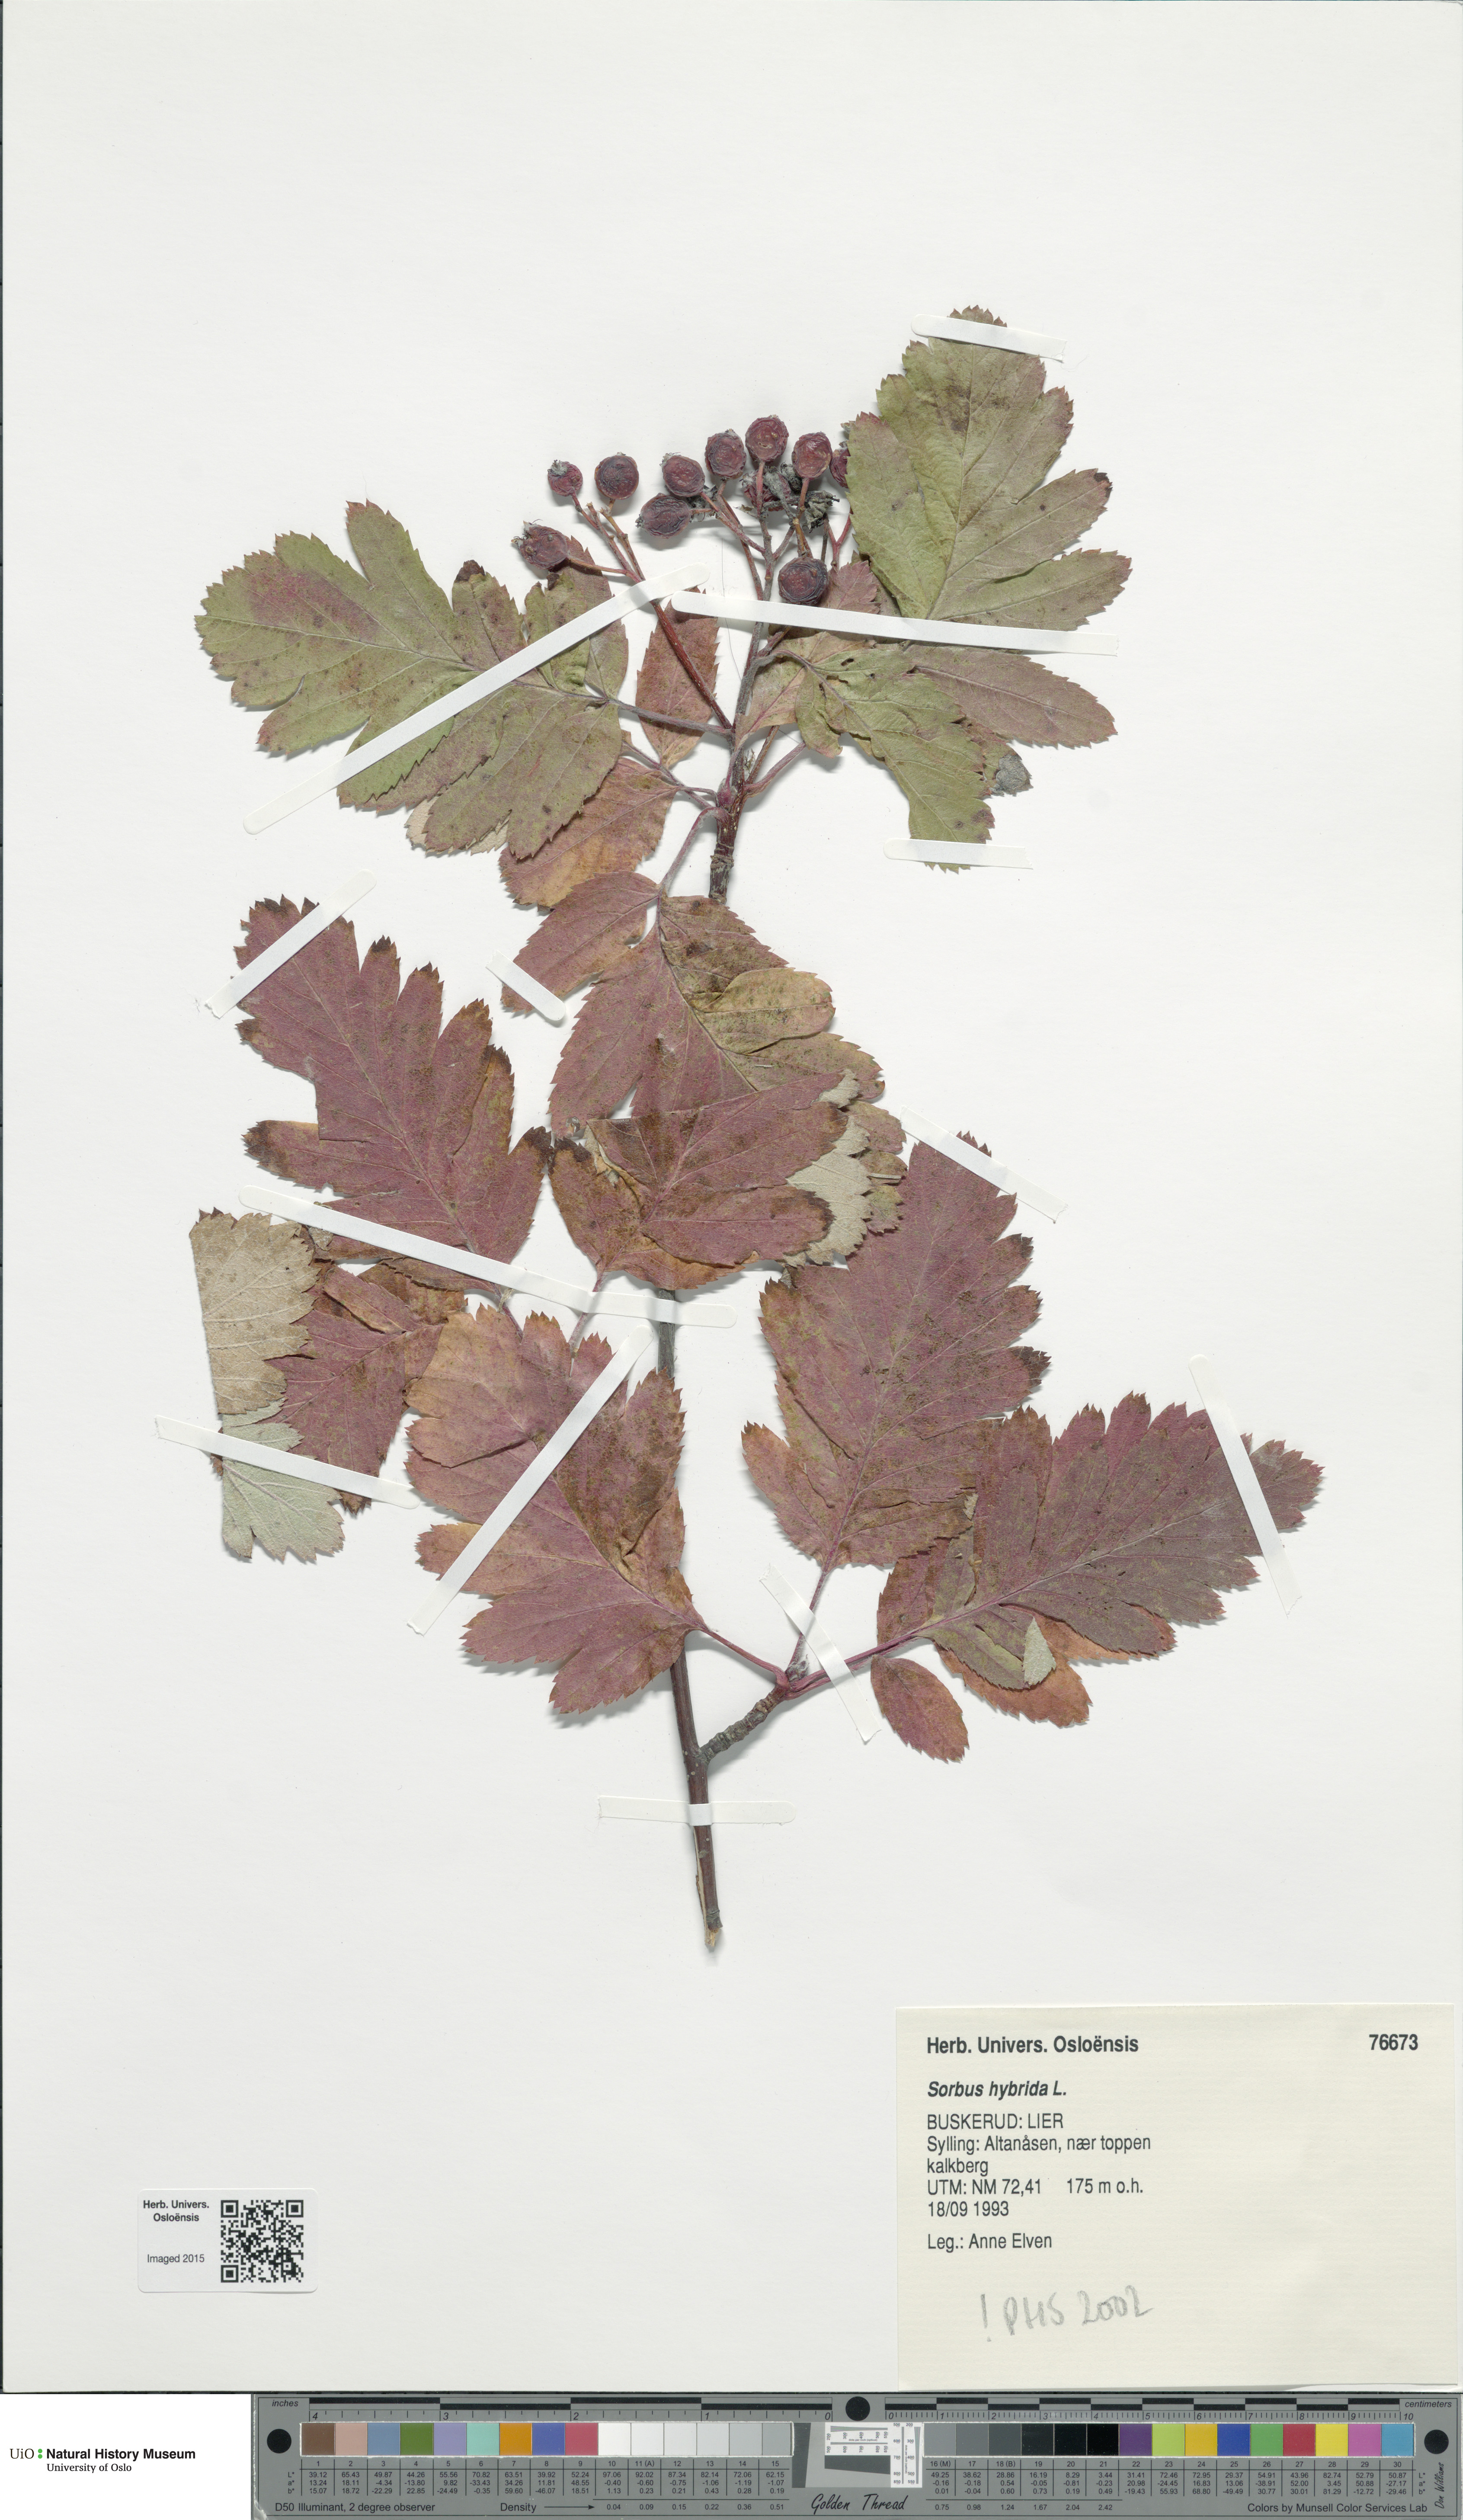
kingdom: Plantae
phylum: Tracheophyta
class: Magnoliopsida
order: Rosales
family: Rosaceae
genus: Hedlundia
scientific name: Hedlundia hybrida
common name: Swedish service-tree
